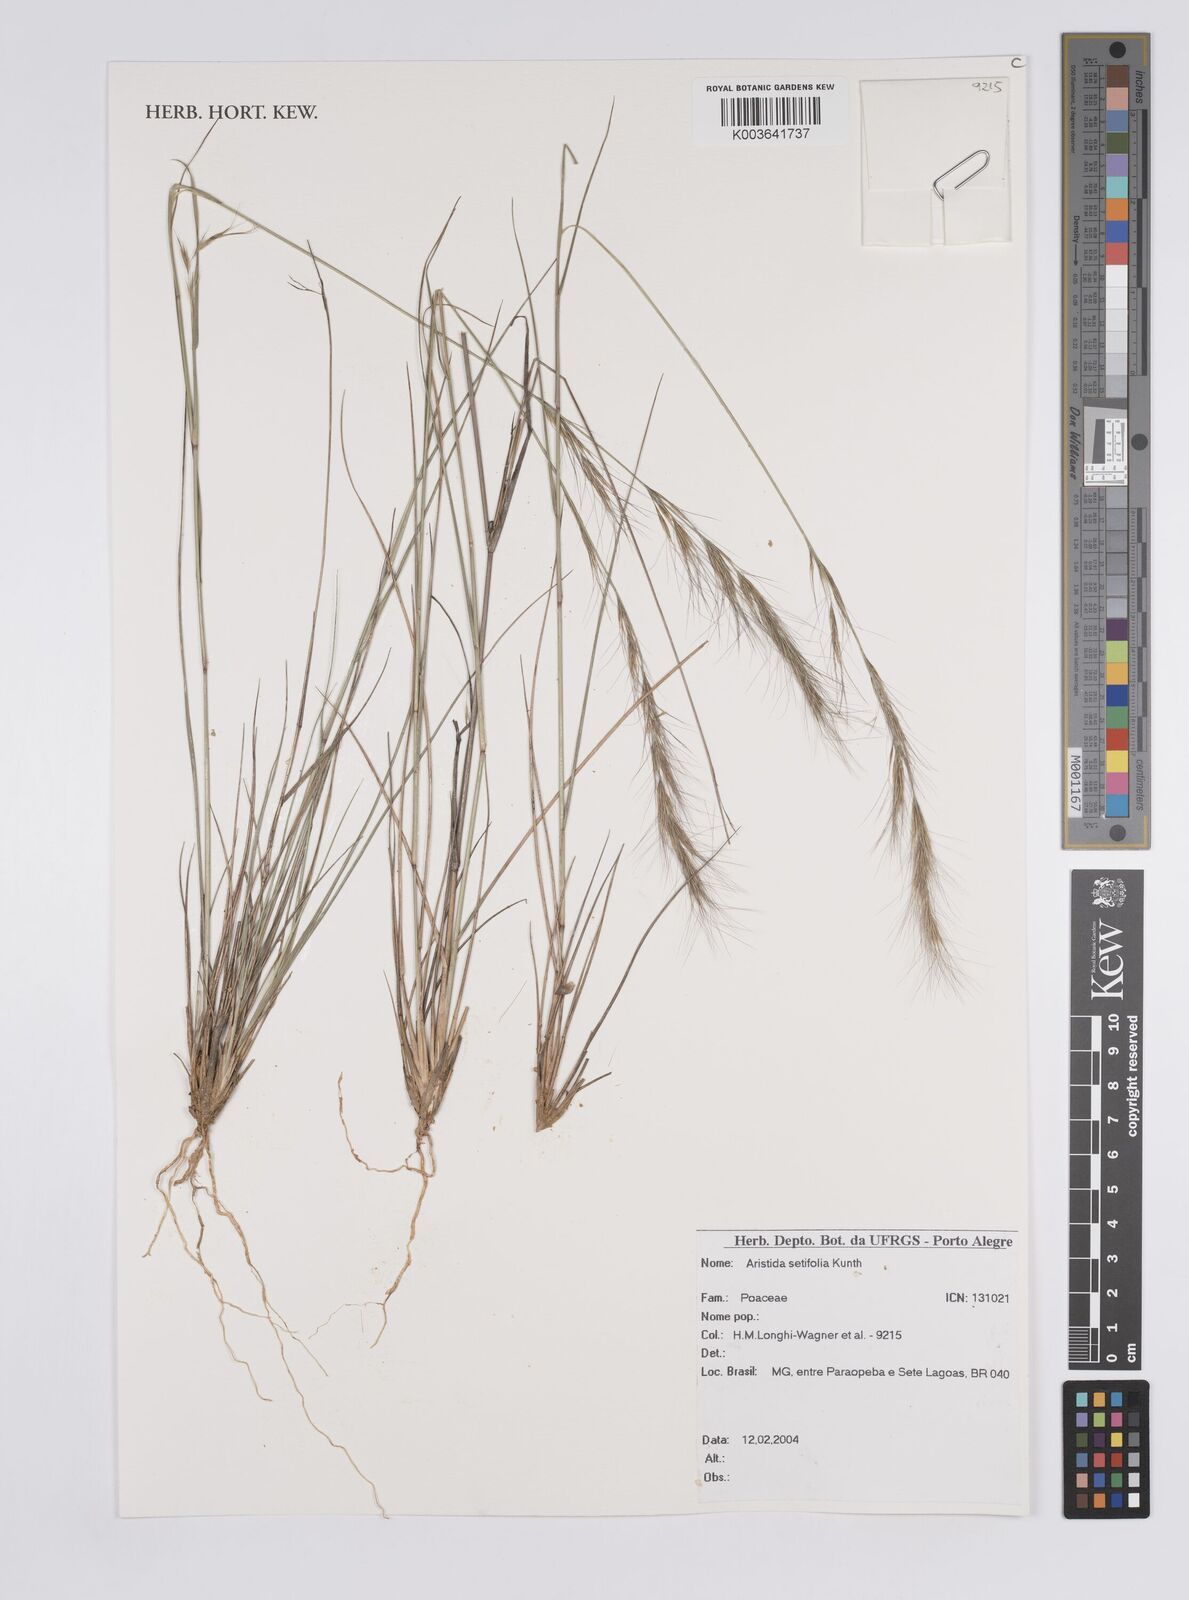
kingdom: Plantae
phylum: Tracheophyta
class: Liliopsida
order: Poales
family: Poaceae
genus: Aristida
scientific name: Aristida setifolia
